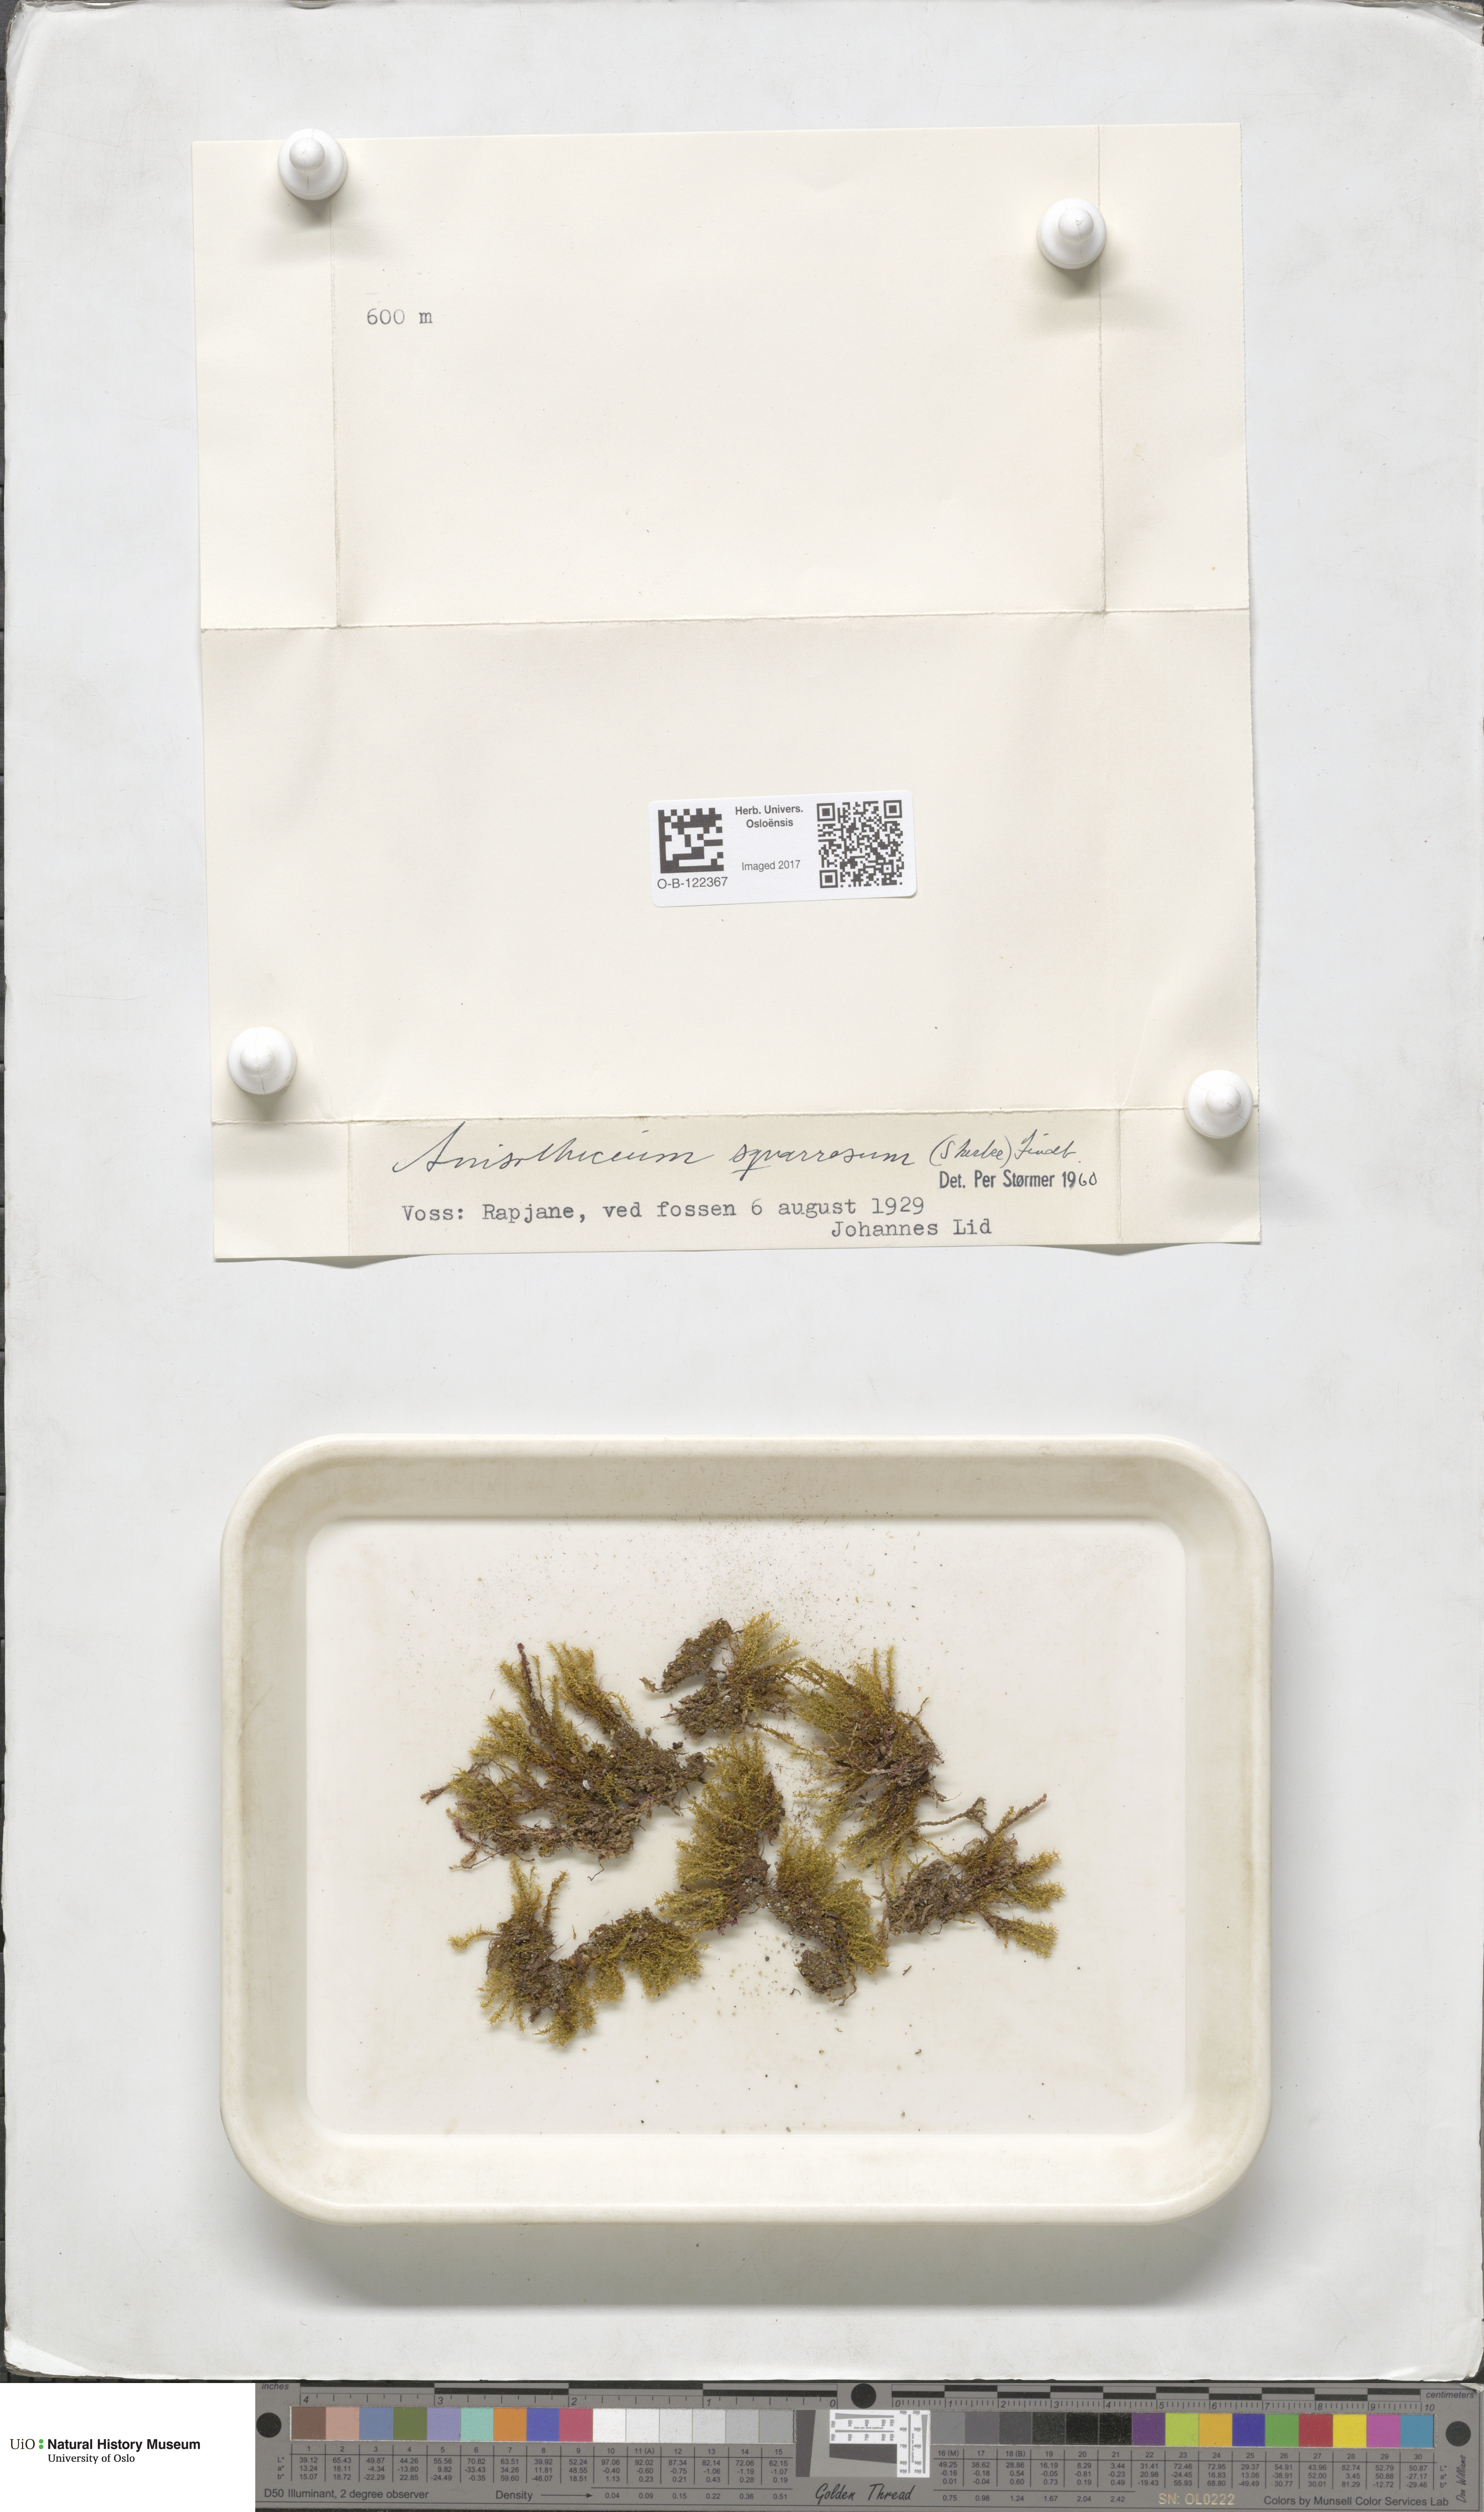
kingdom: Plantae
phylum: Bryophyta
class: Bryopsida
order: Dicranales
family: Aongstroemiaceae
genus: Diobelonella
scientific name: Diobelonella palustris
